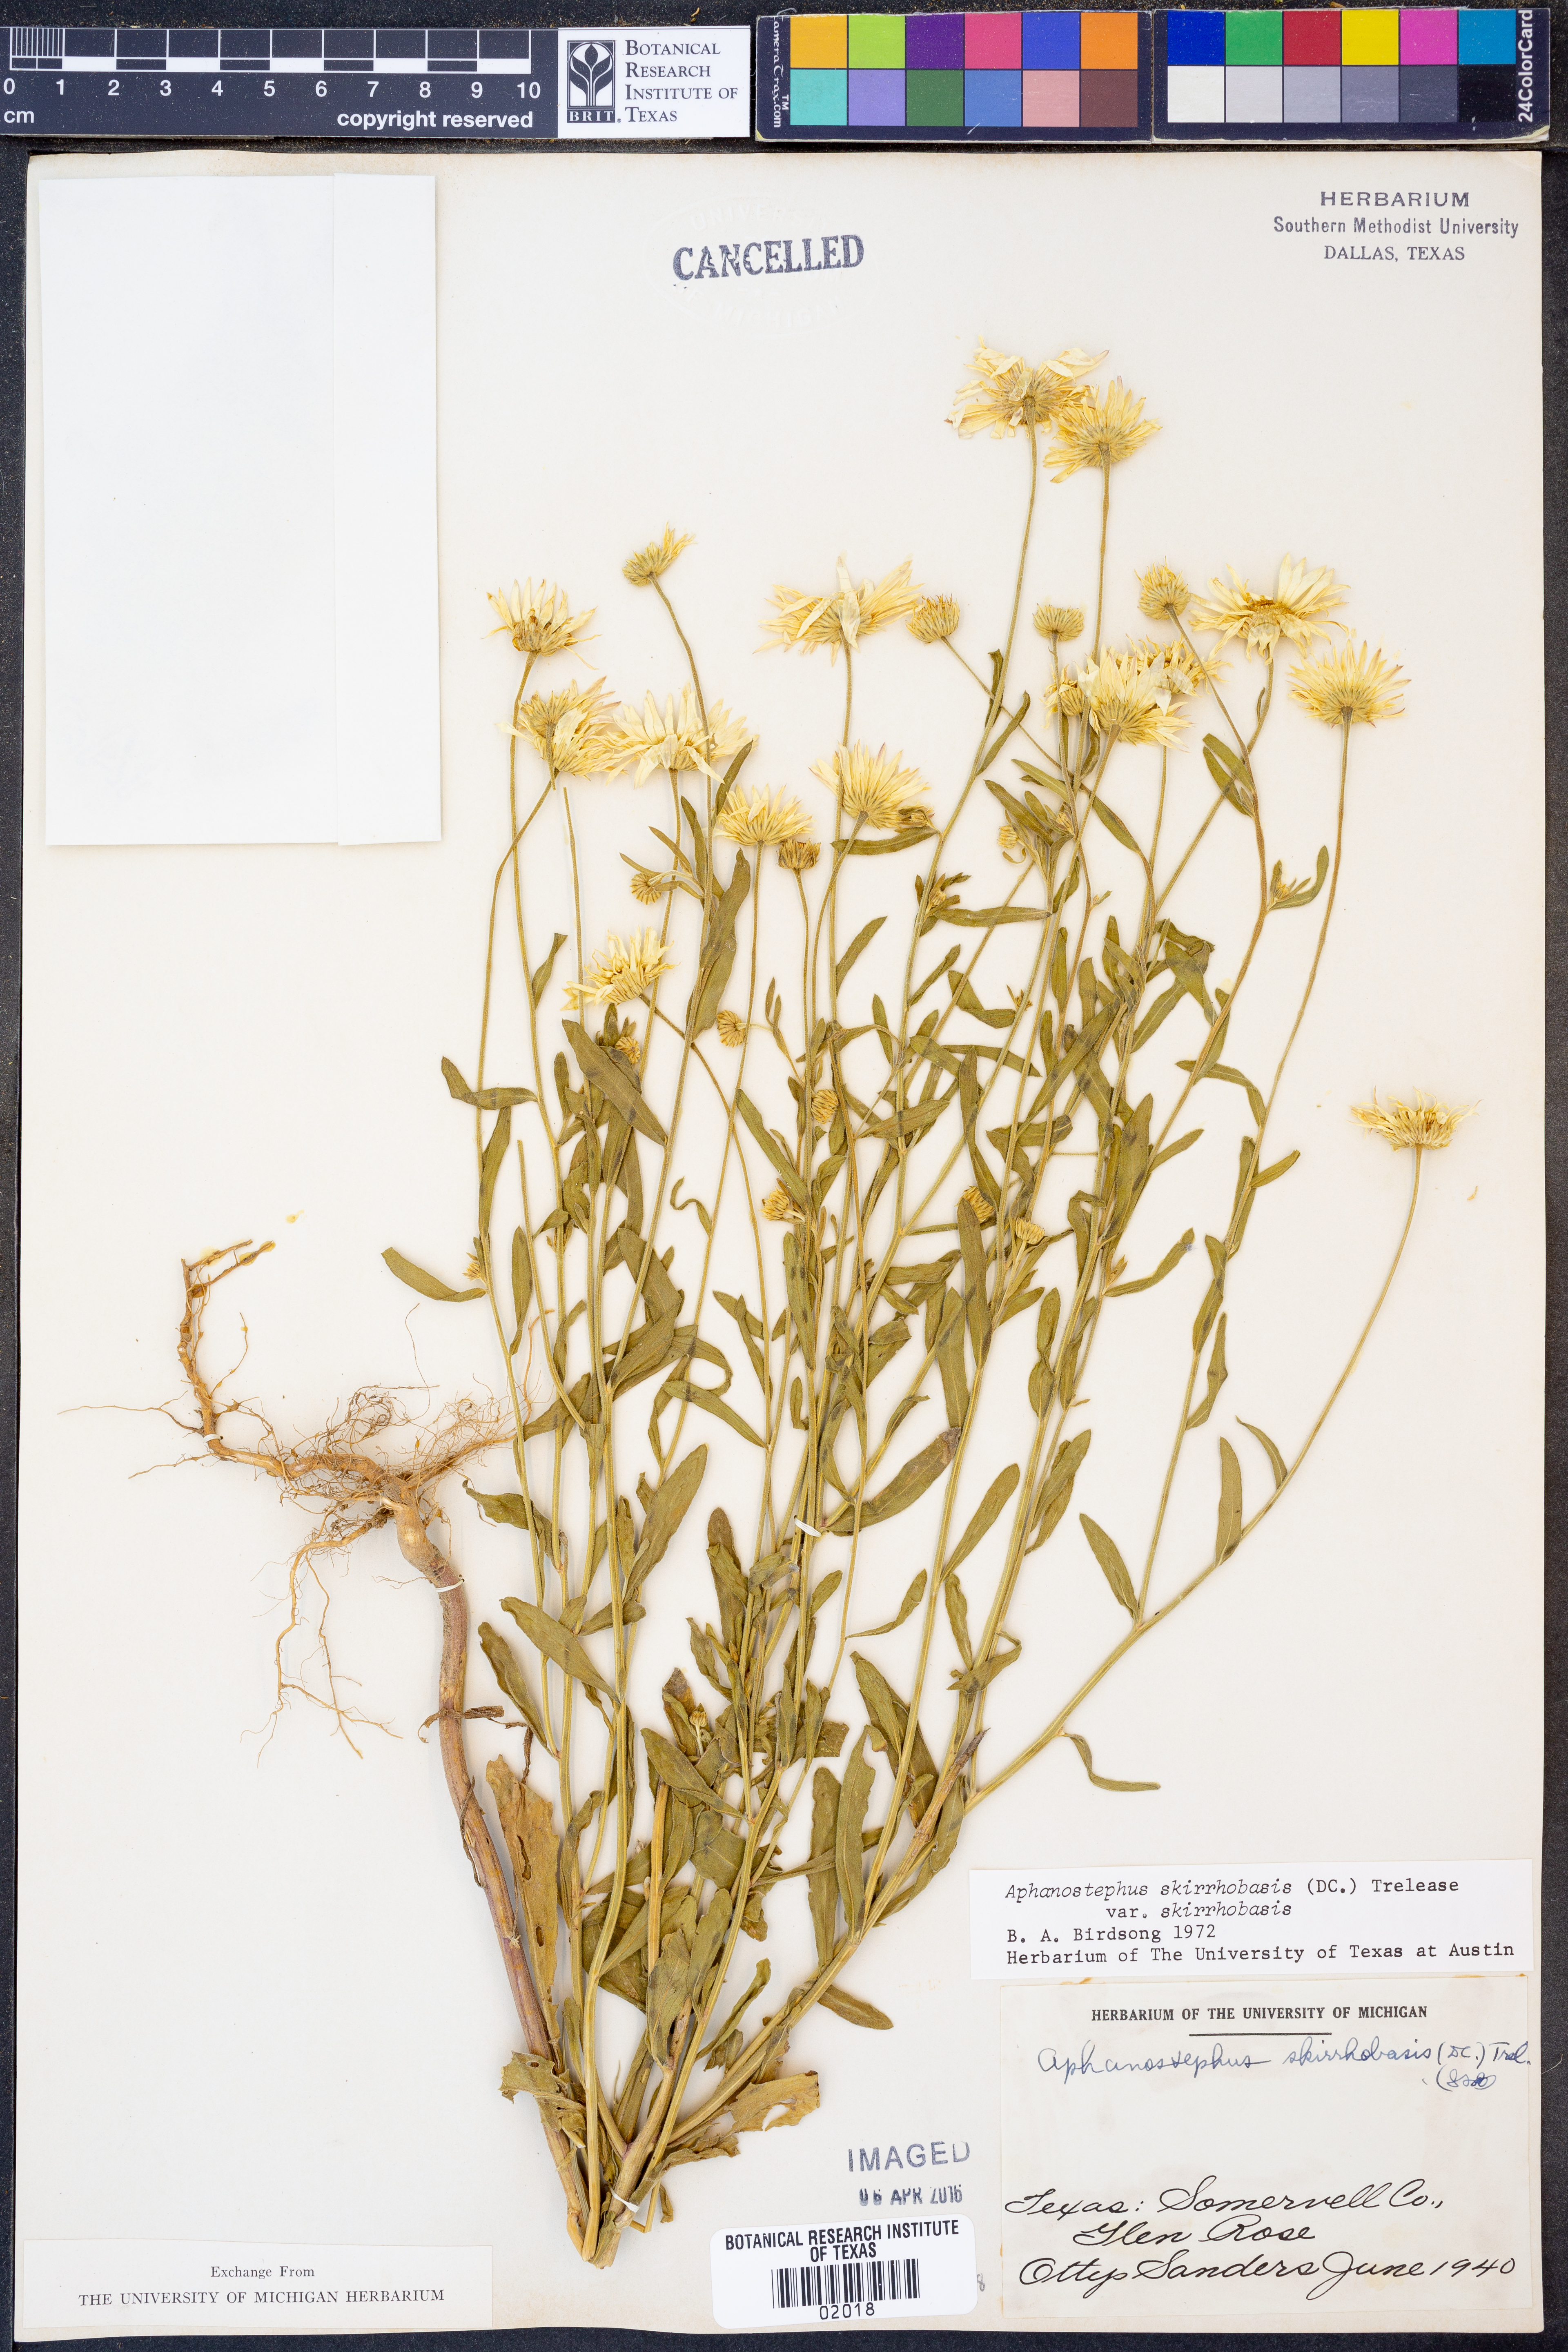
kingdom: Plantae
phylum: Tracheophyta
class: Magnoliopsida
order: Asterales
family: Asteraceae
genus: Aphanostephus
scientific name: Aphanostephus skirrhobasis
